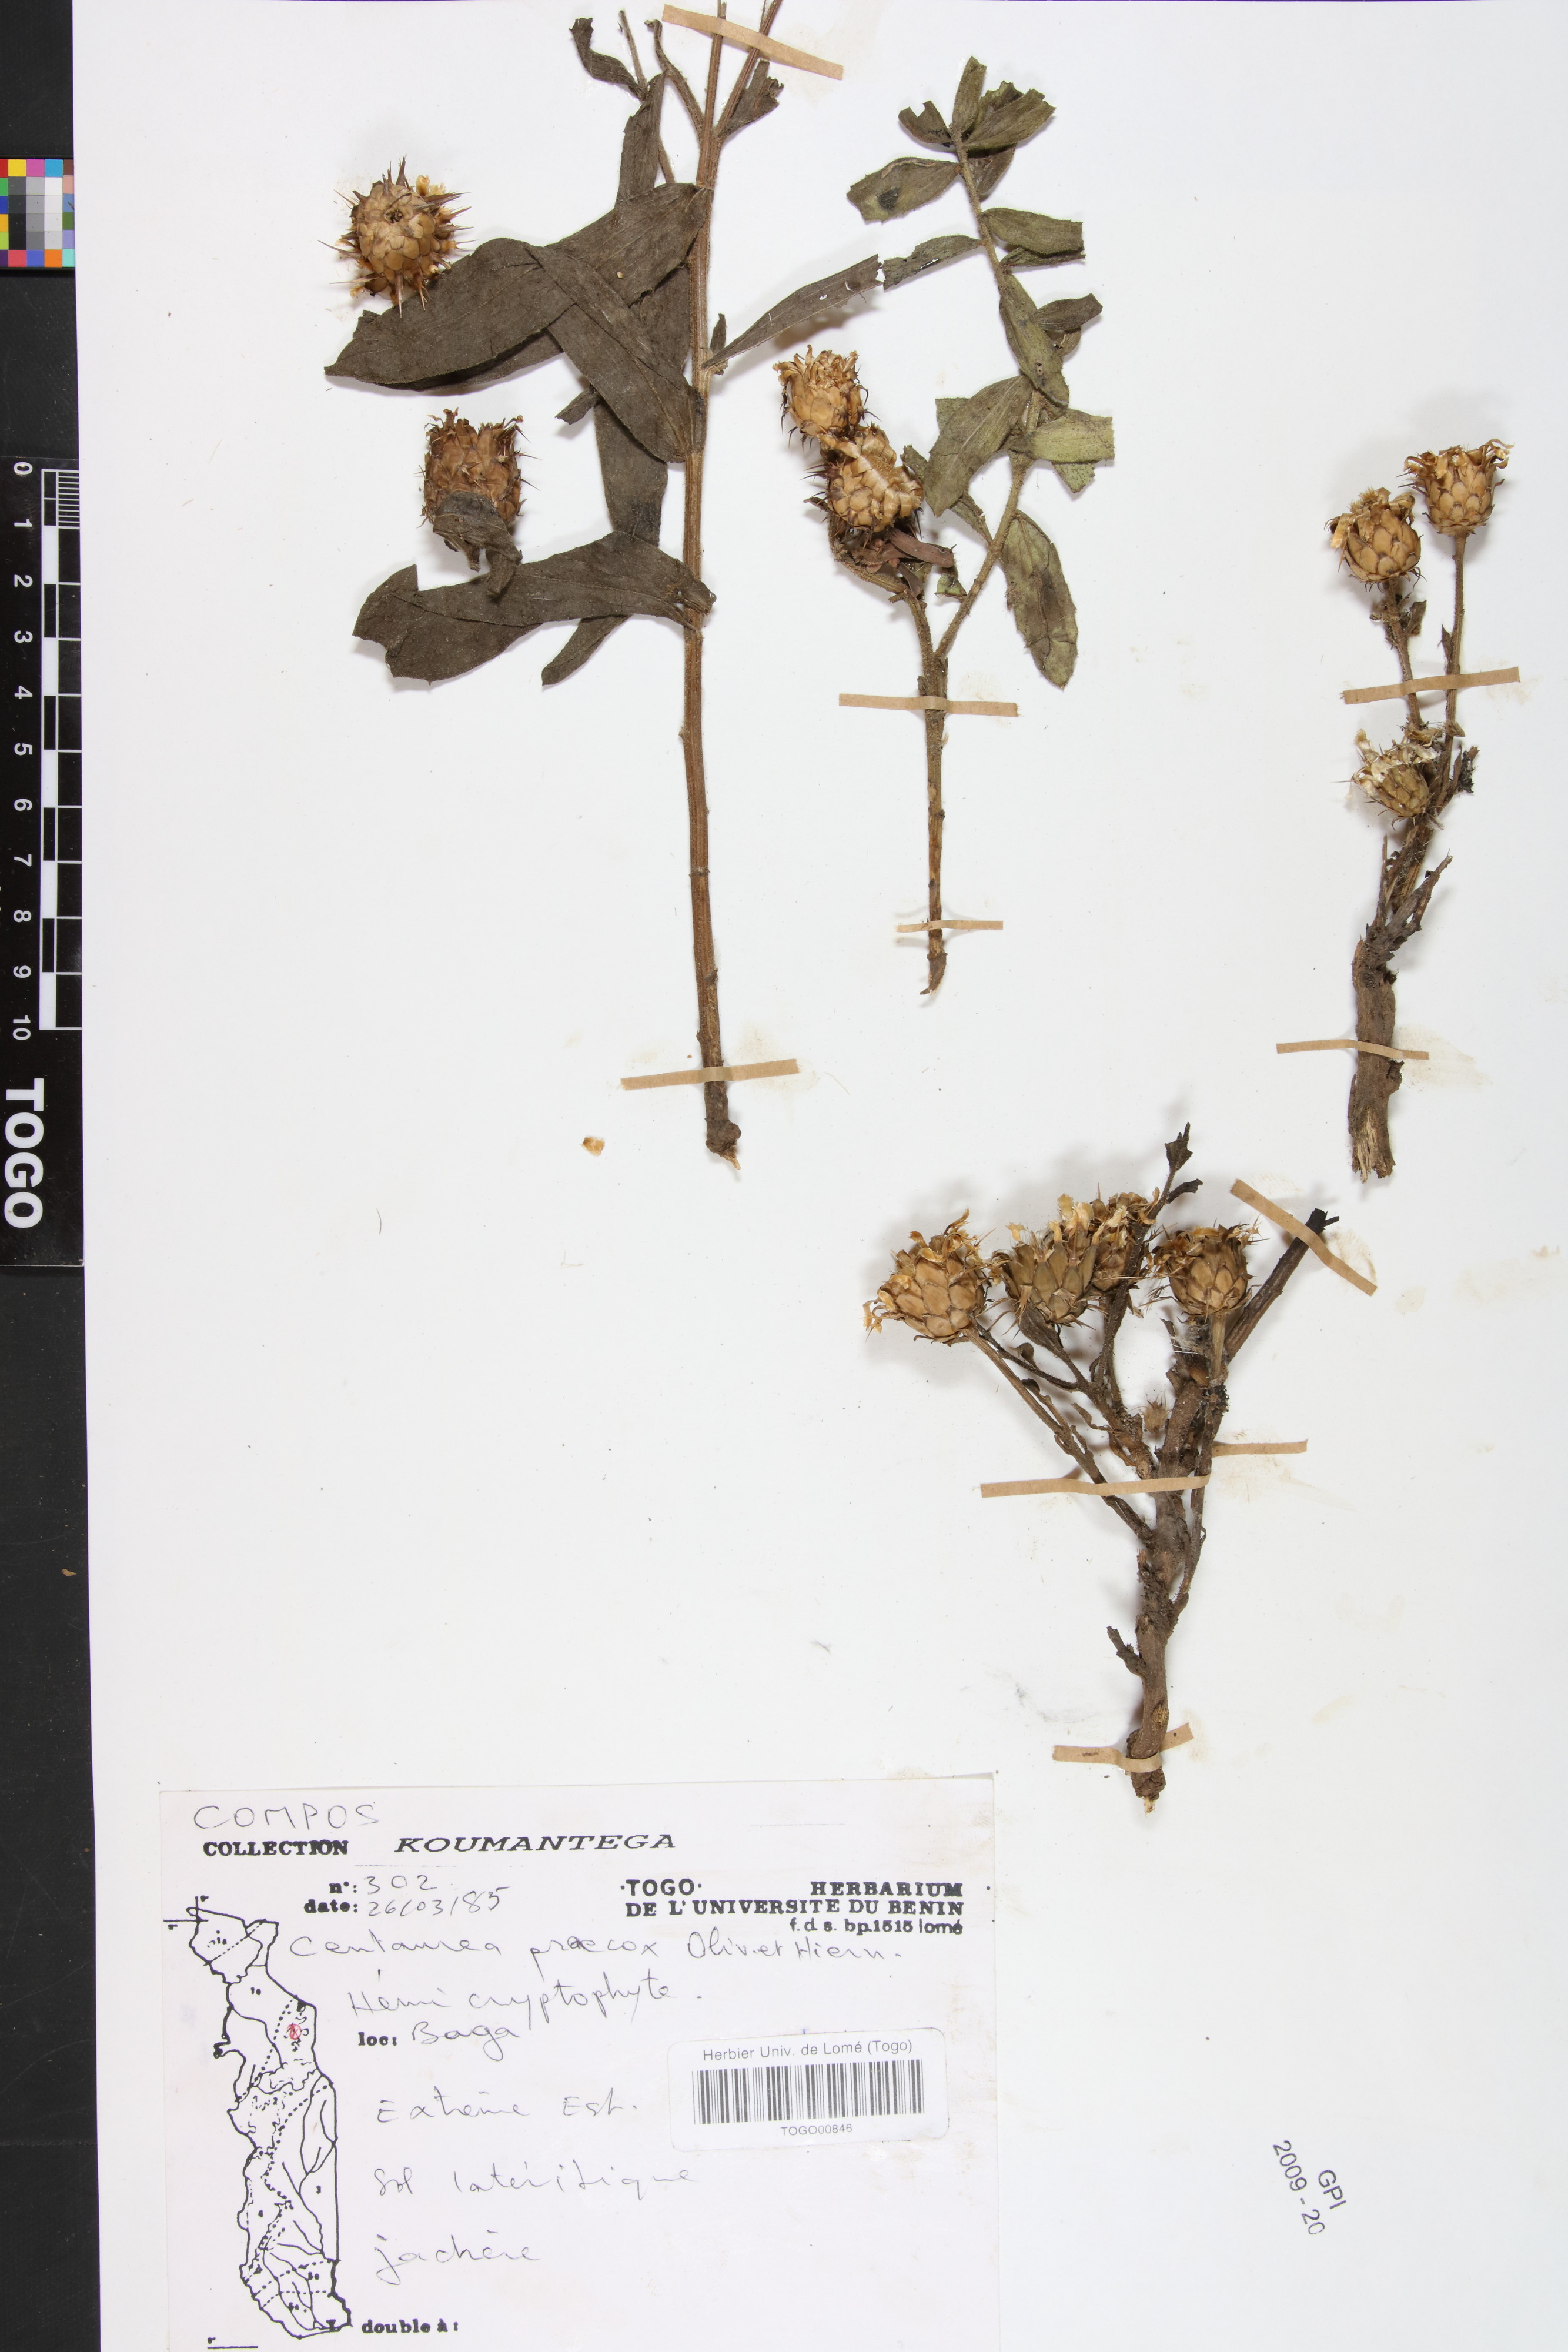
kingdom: Plantae
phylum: Tracheophyta
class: Magnoliopsida
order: Asterales
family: Asteraceae
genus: Centaurea
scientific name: Centaurea praecox
